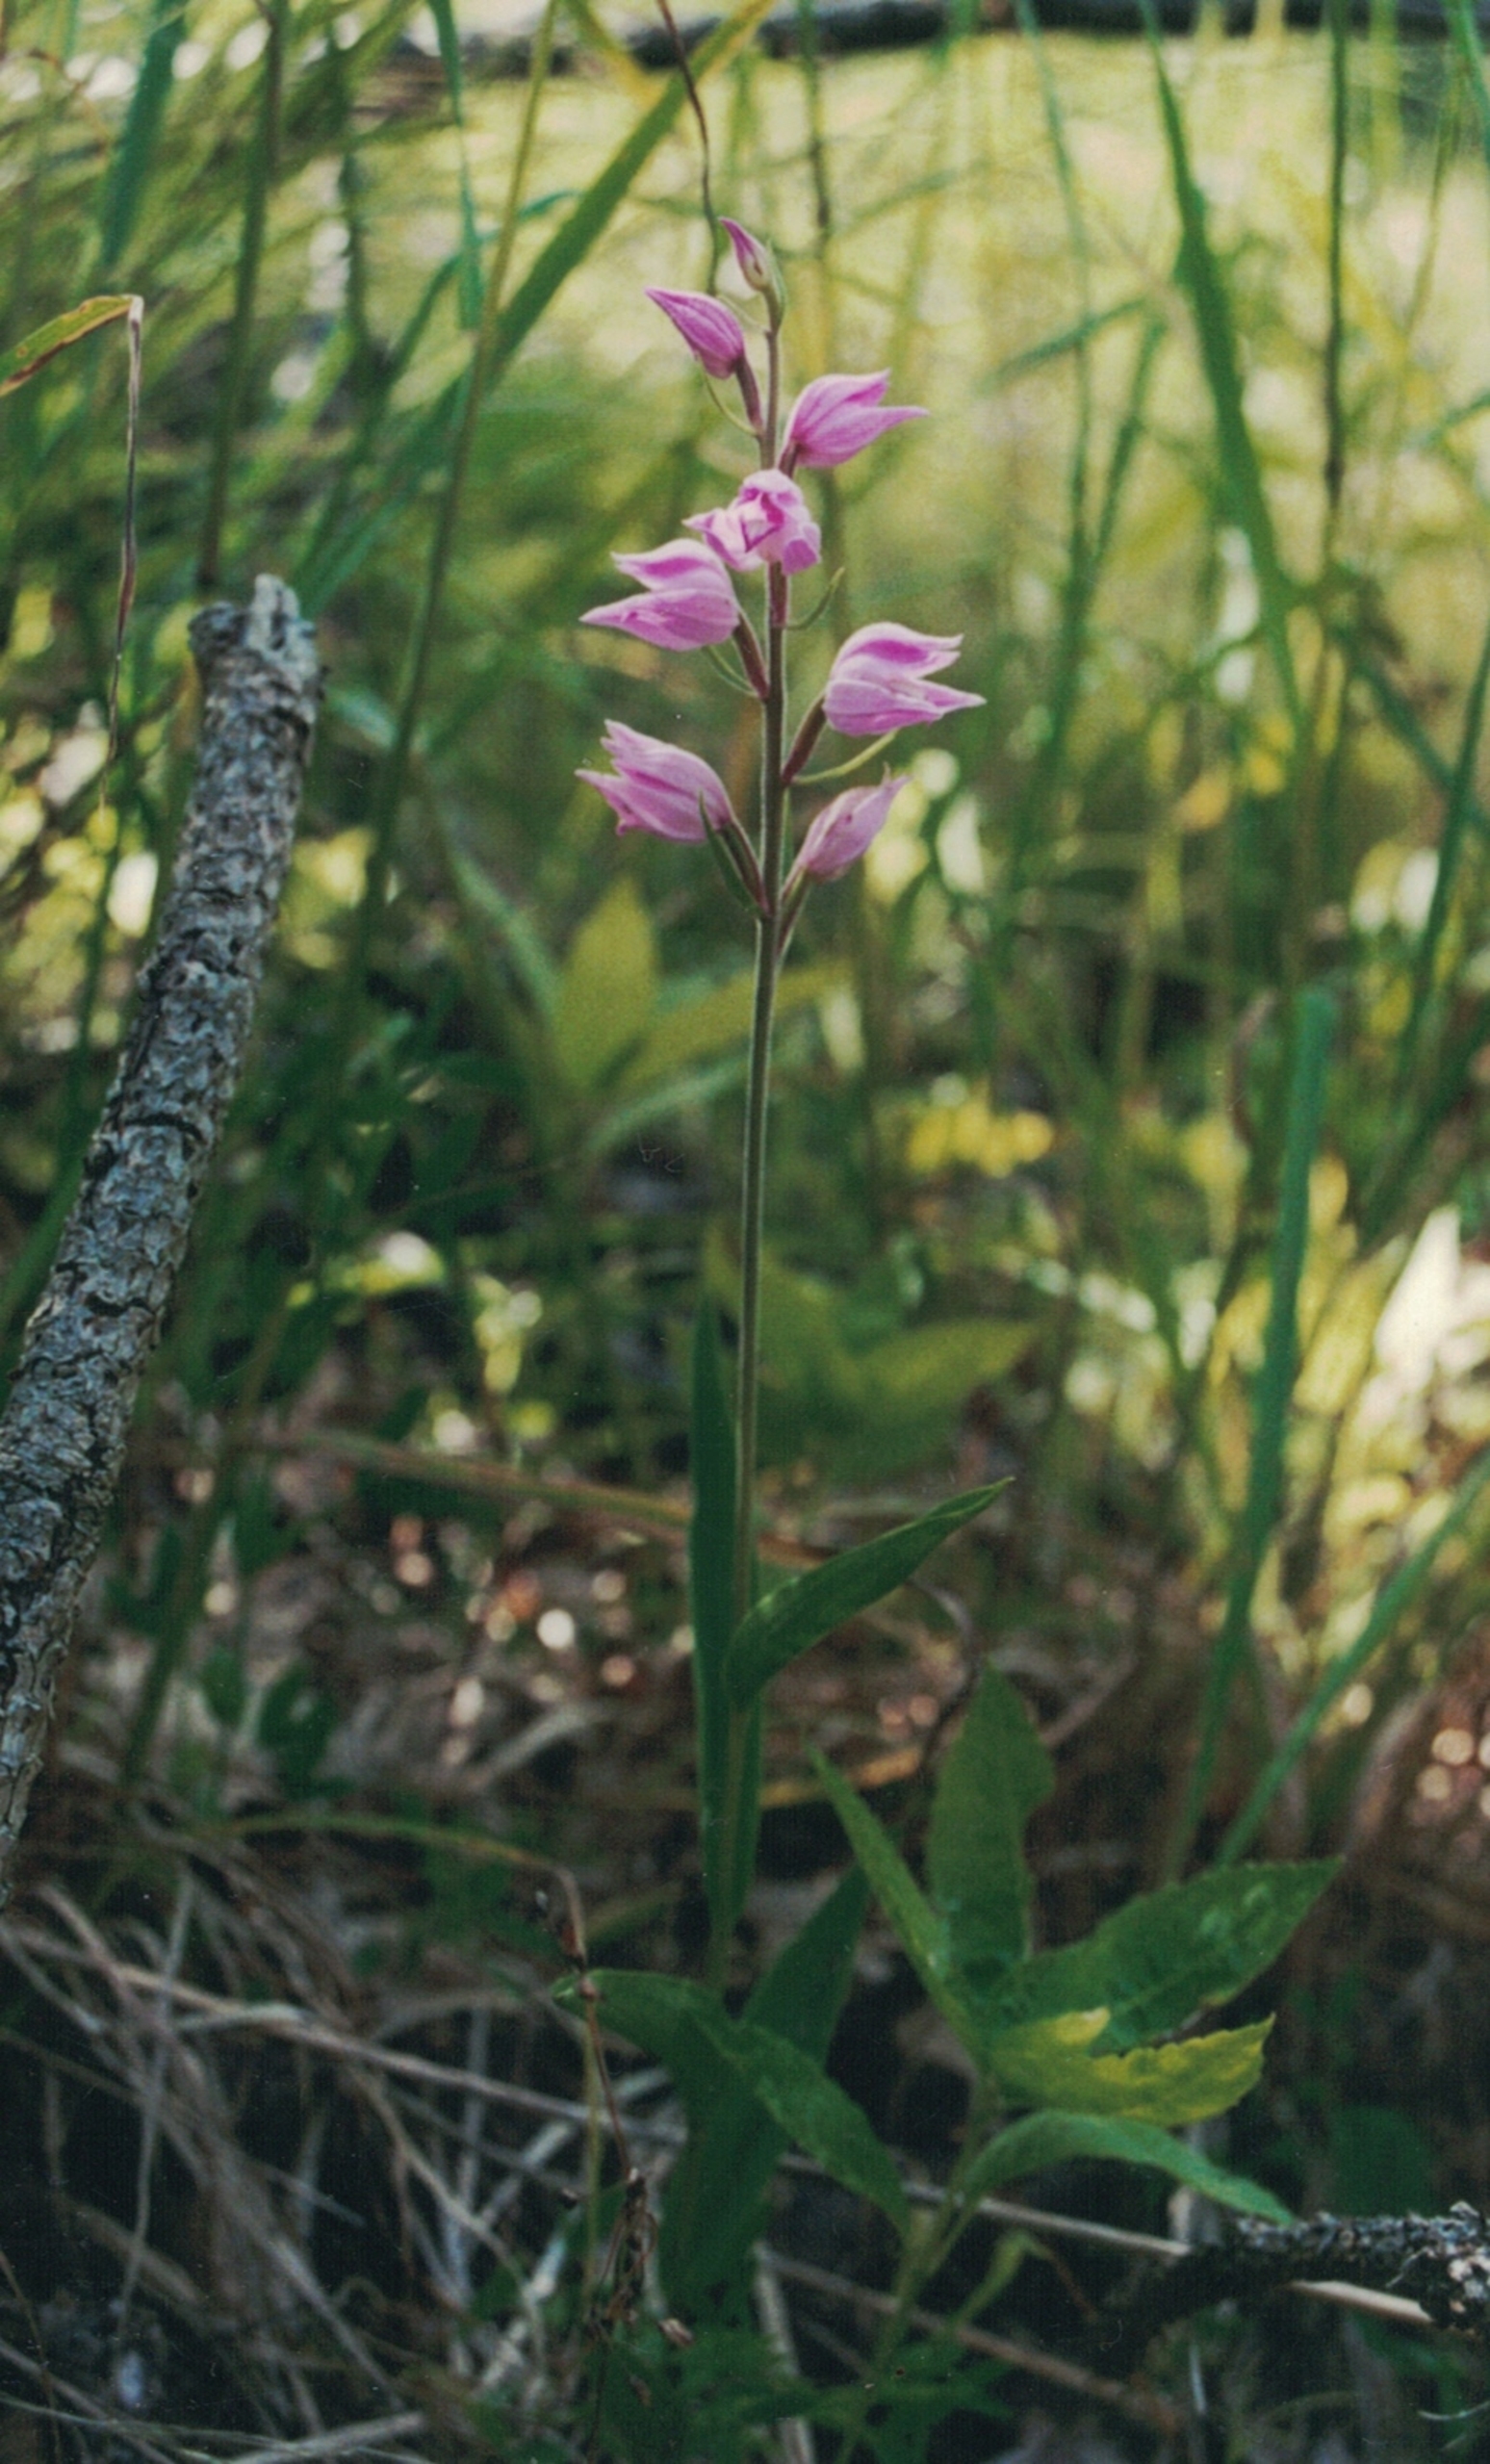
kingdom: Plantae
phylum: Tracheophyta
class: Liliopsida
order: Asparagales
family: Orchidaceae
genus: Cephalanthera
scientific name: Cephalanthera rubra
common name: Rød skovlilje
